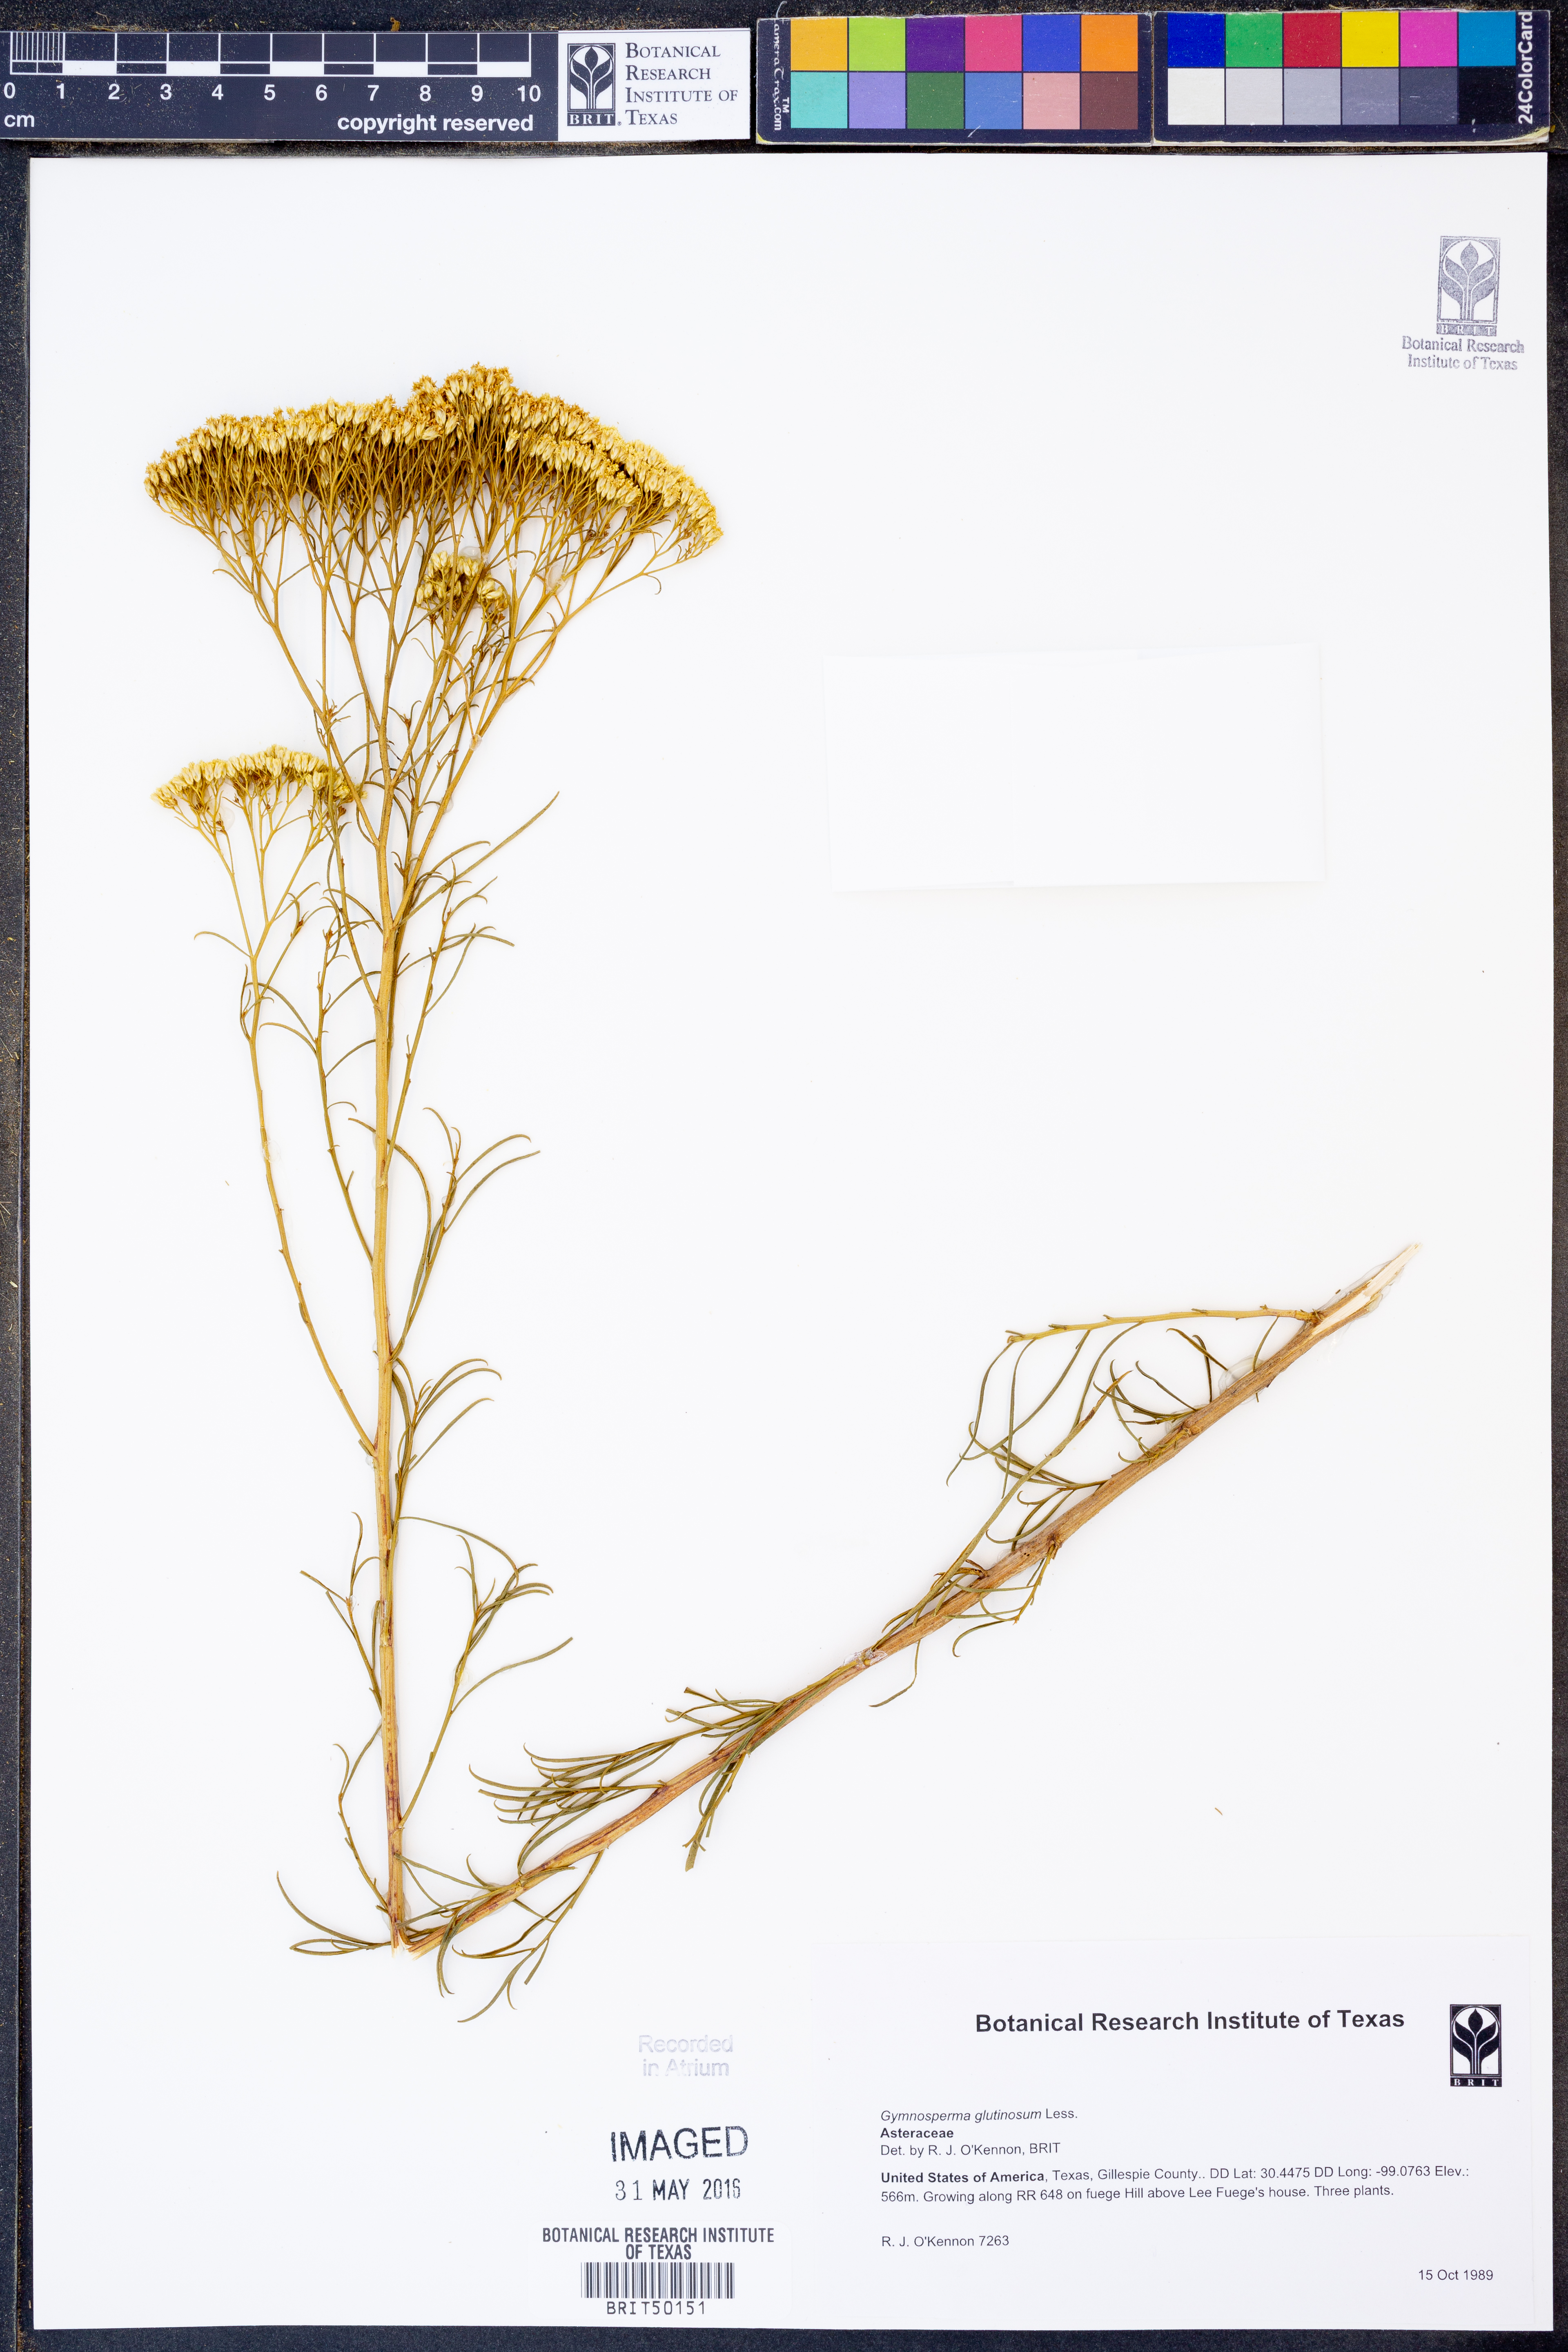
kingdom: Plantae
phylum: Tracheophyta
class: Magnoliopsida
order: Asterales
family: Asteraceae
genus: Gymnosperma
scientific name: Gymnosperma glutinosum
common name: Gumhead
